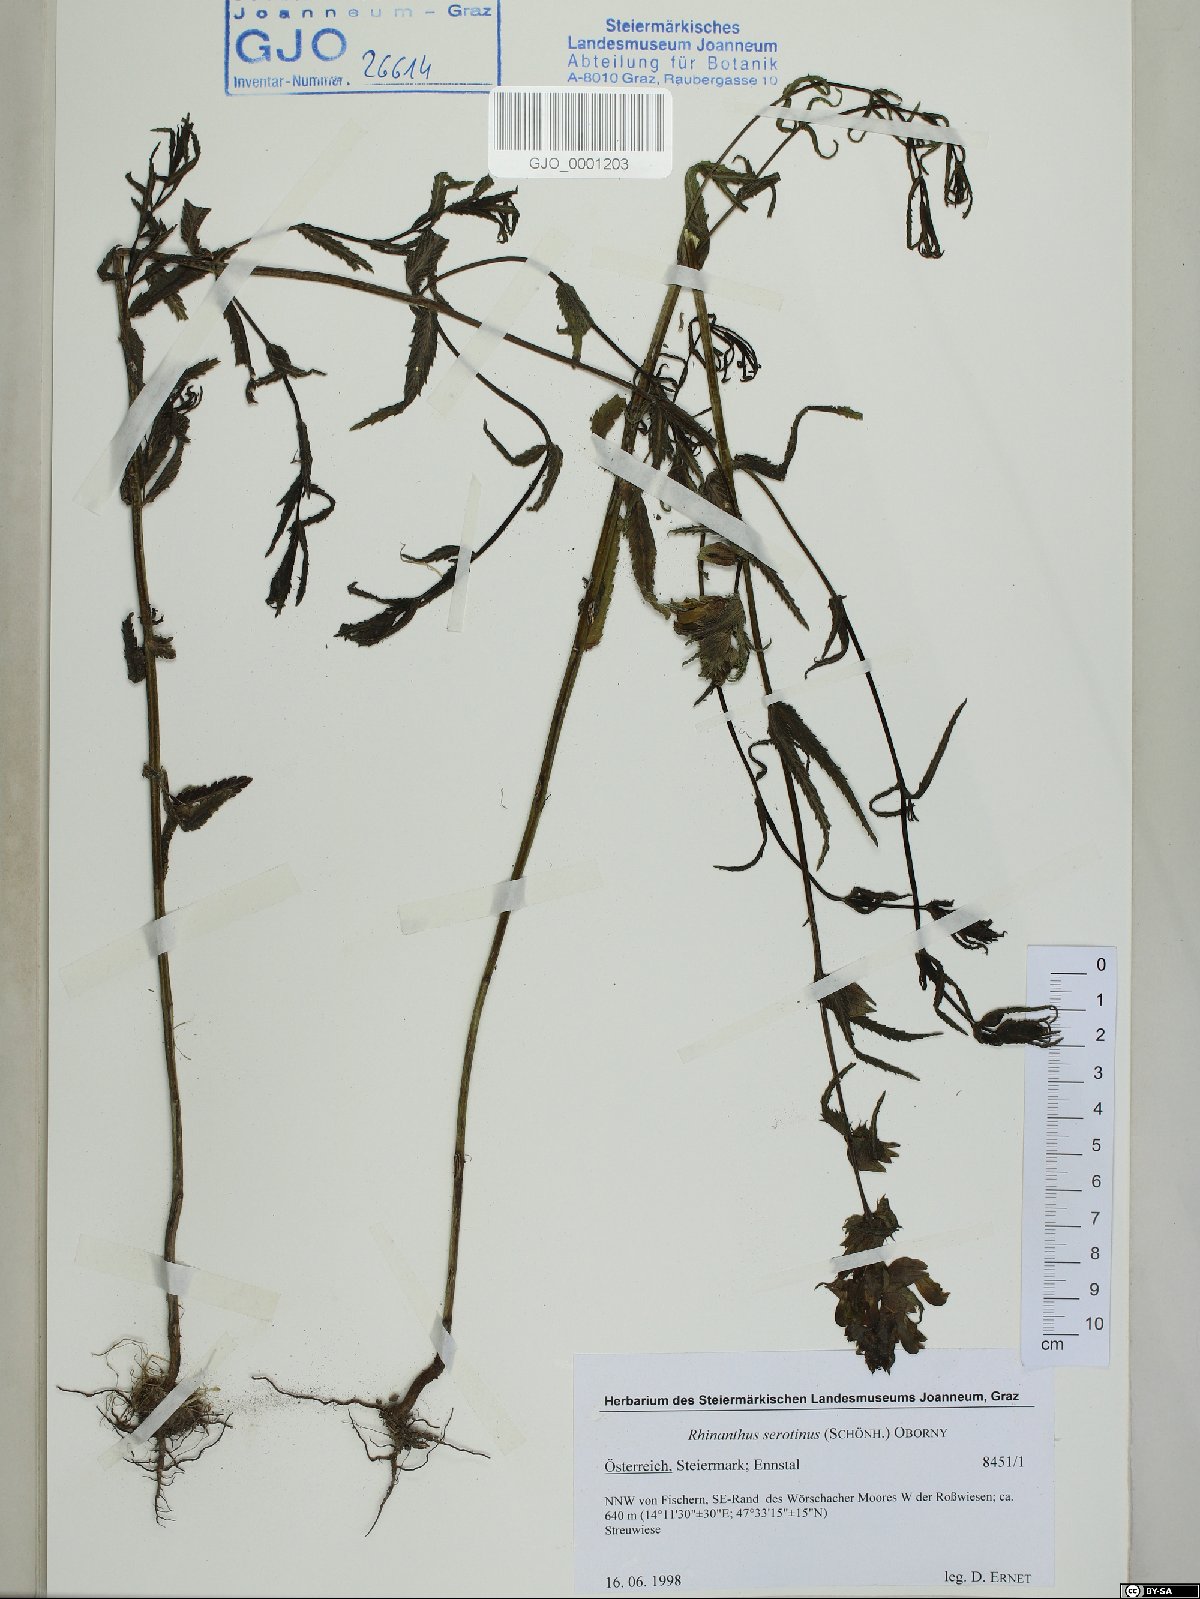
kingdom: Plantae
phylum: Tracheophyta
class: Magnoliopsida
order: Lamiales
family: Orobanchaceae
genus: Rhinanthus
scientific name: Rhinanthus serotinus
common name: Late-flowering yellow rattle
